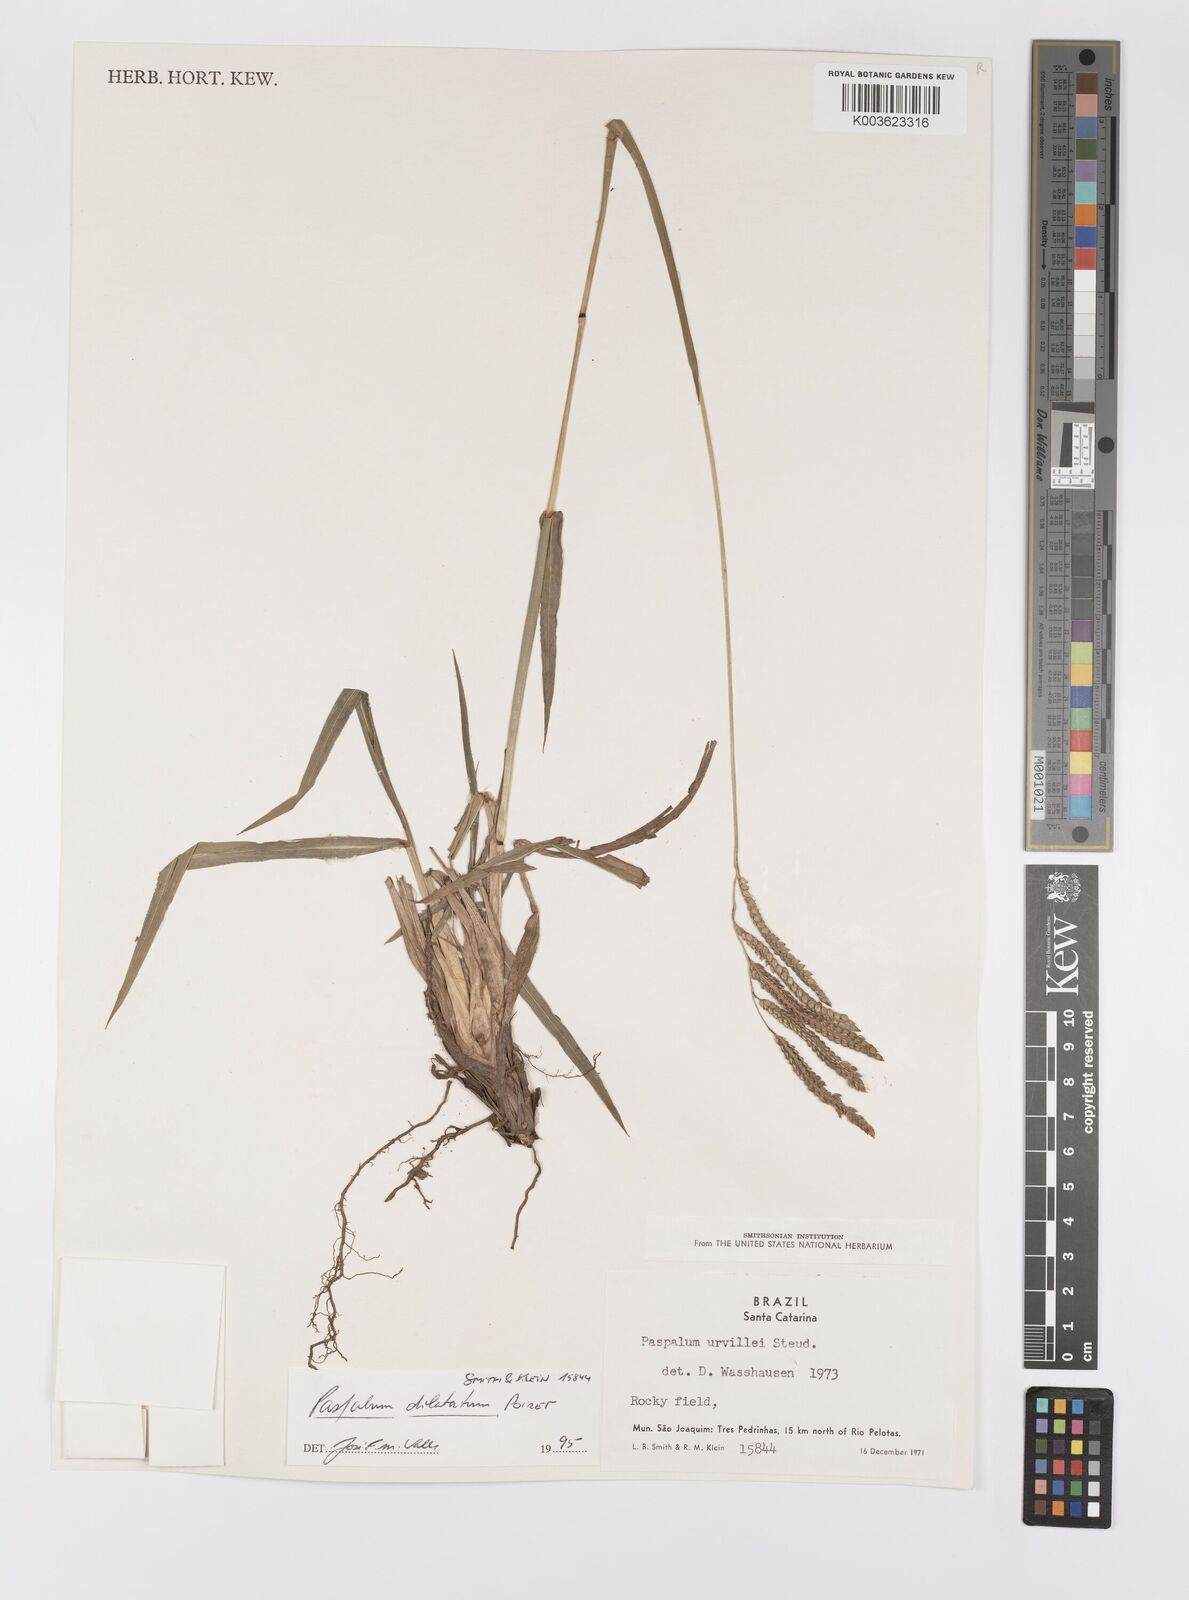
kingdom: Plantae
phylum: Tracheophyta
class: Liliopsida
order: Poales
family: Poaceae
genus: Paspalum
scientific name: Paspalum dilatatum
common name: Dallisgrass
